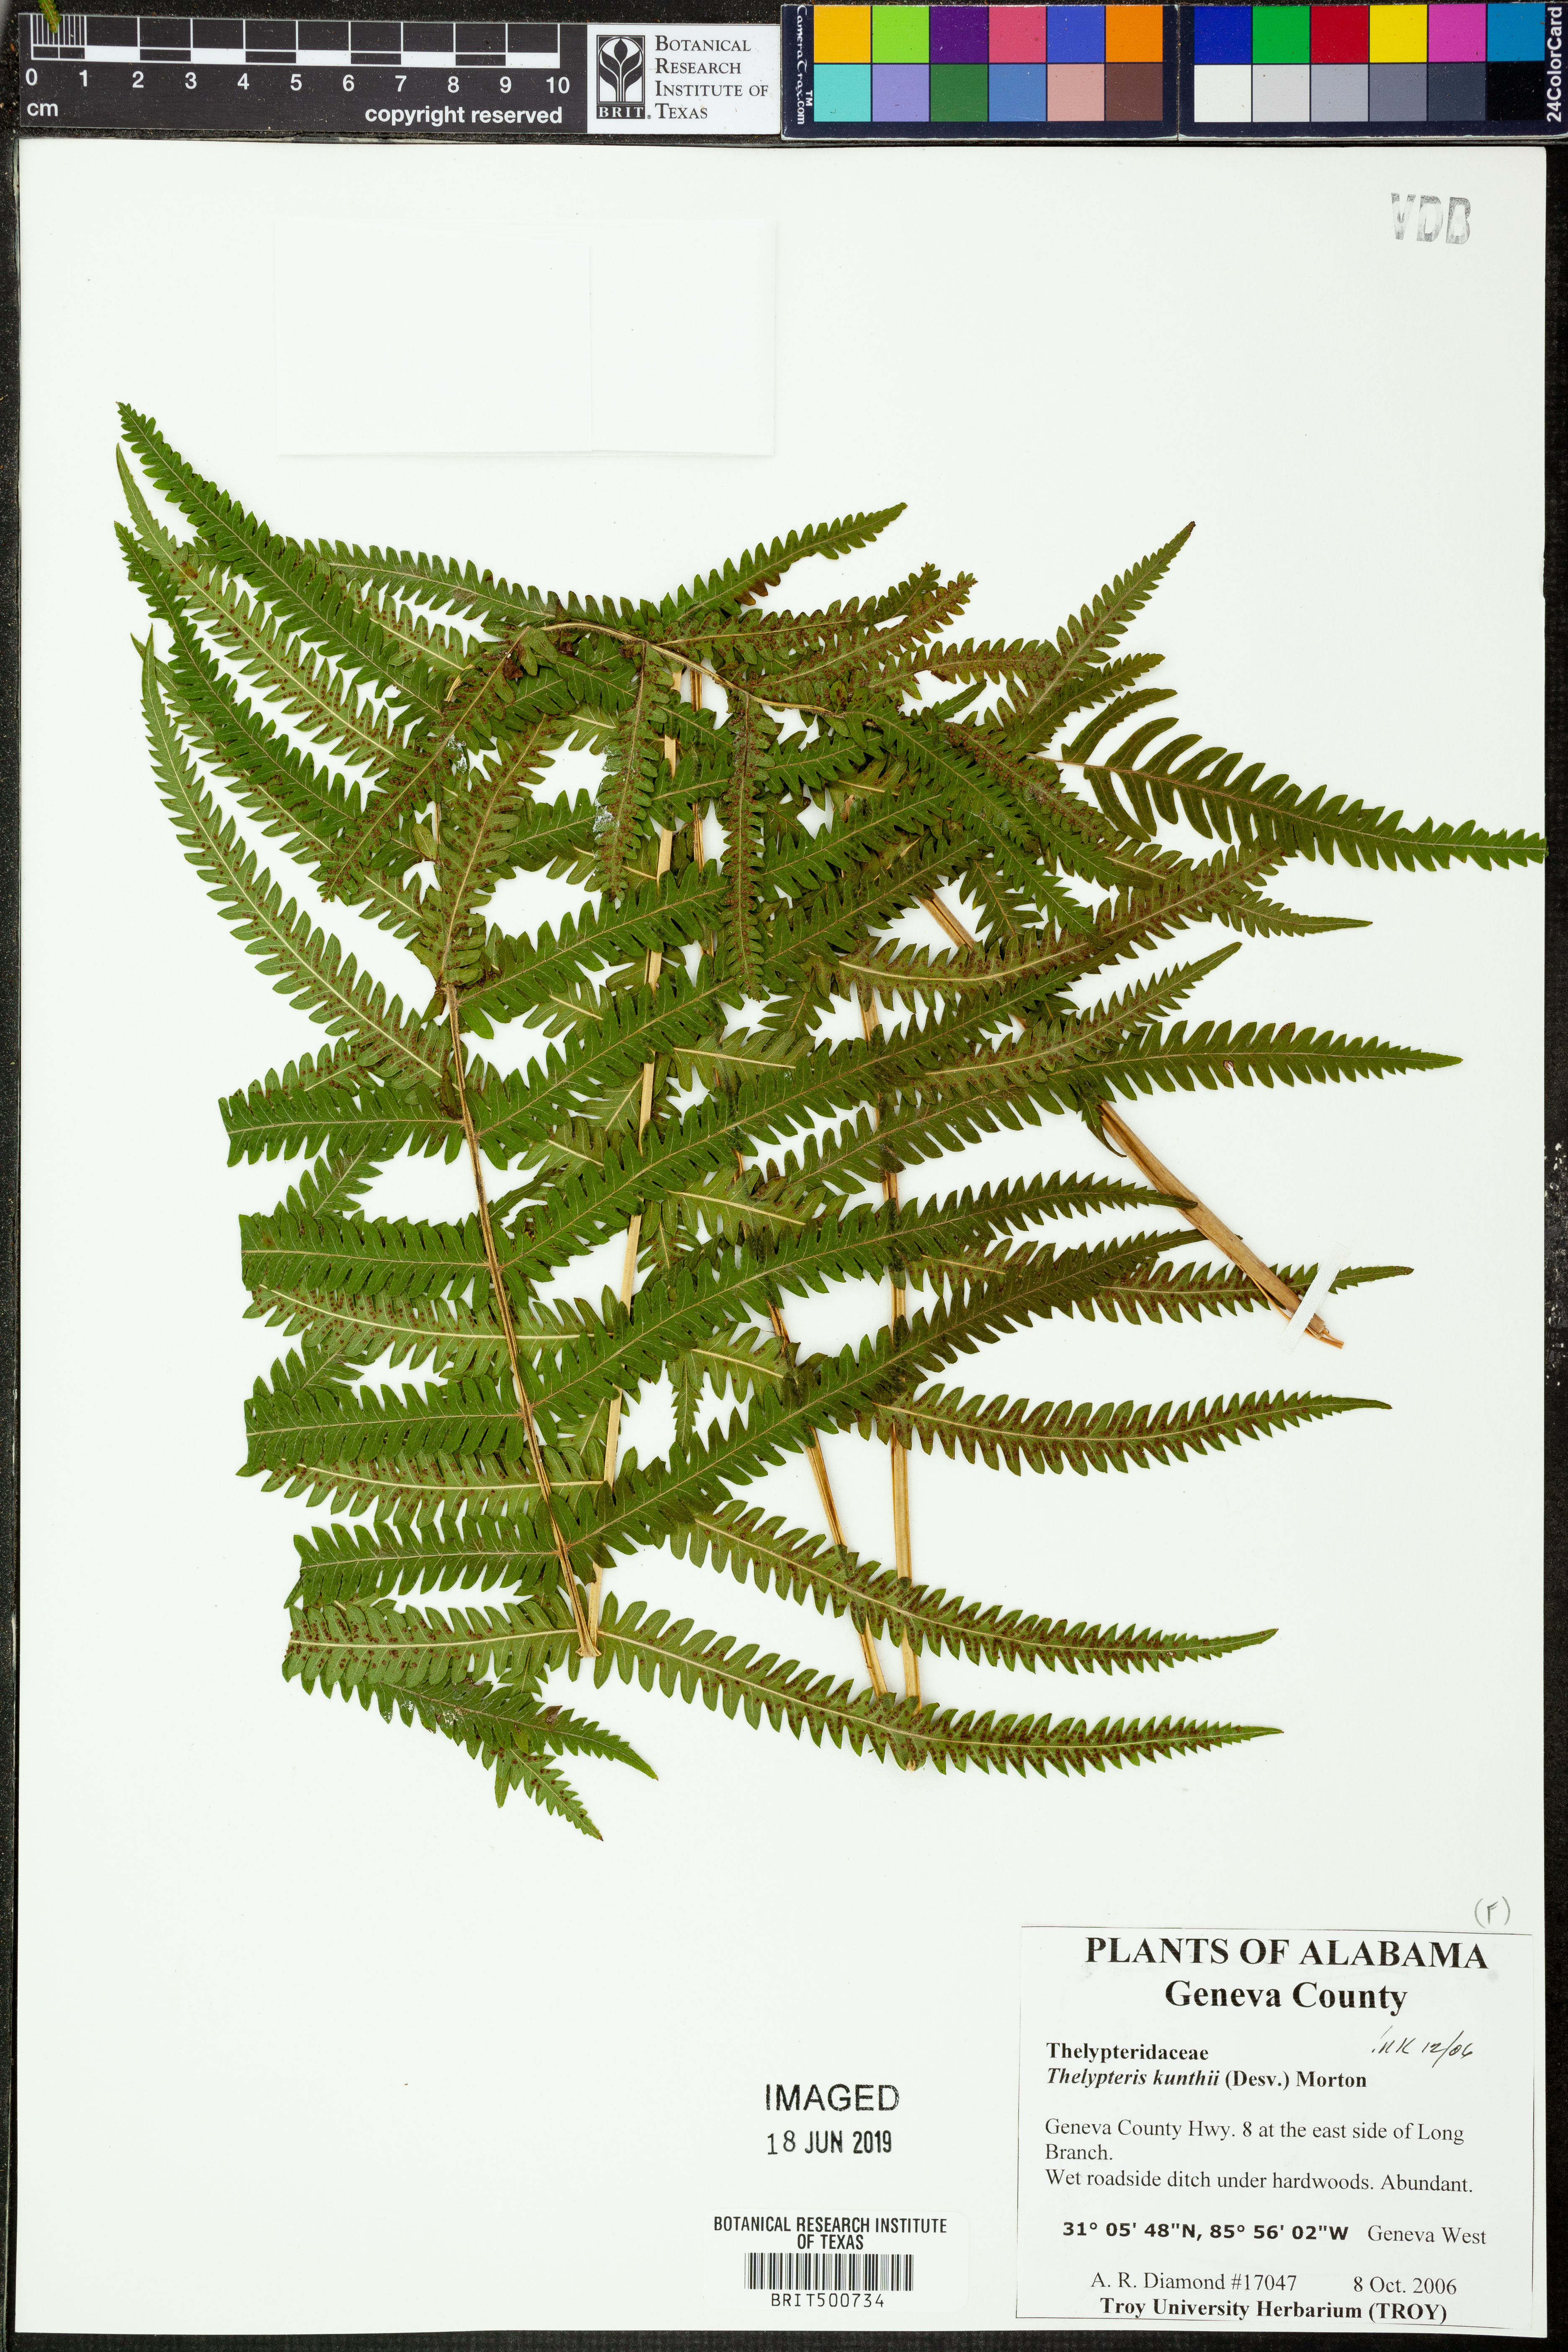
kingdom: Plantae
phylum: Tracheophyta
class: Polypodiopsida
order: Polypodiales
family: Thelypteridaceae
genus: Pelazoneuron
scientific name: Pelazoneuron kunthii
